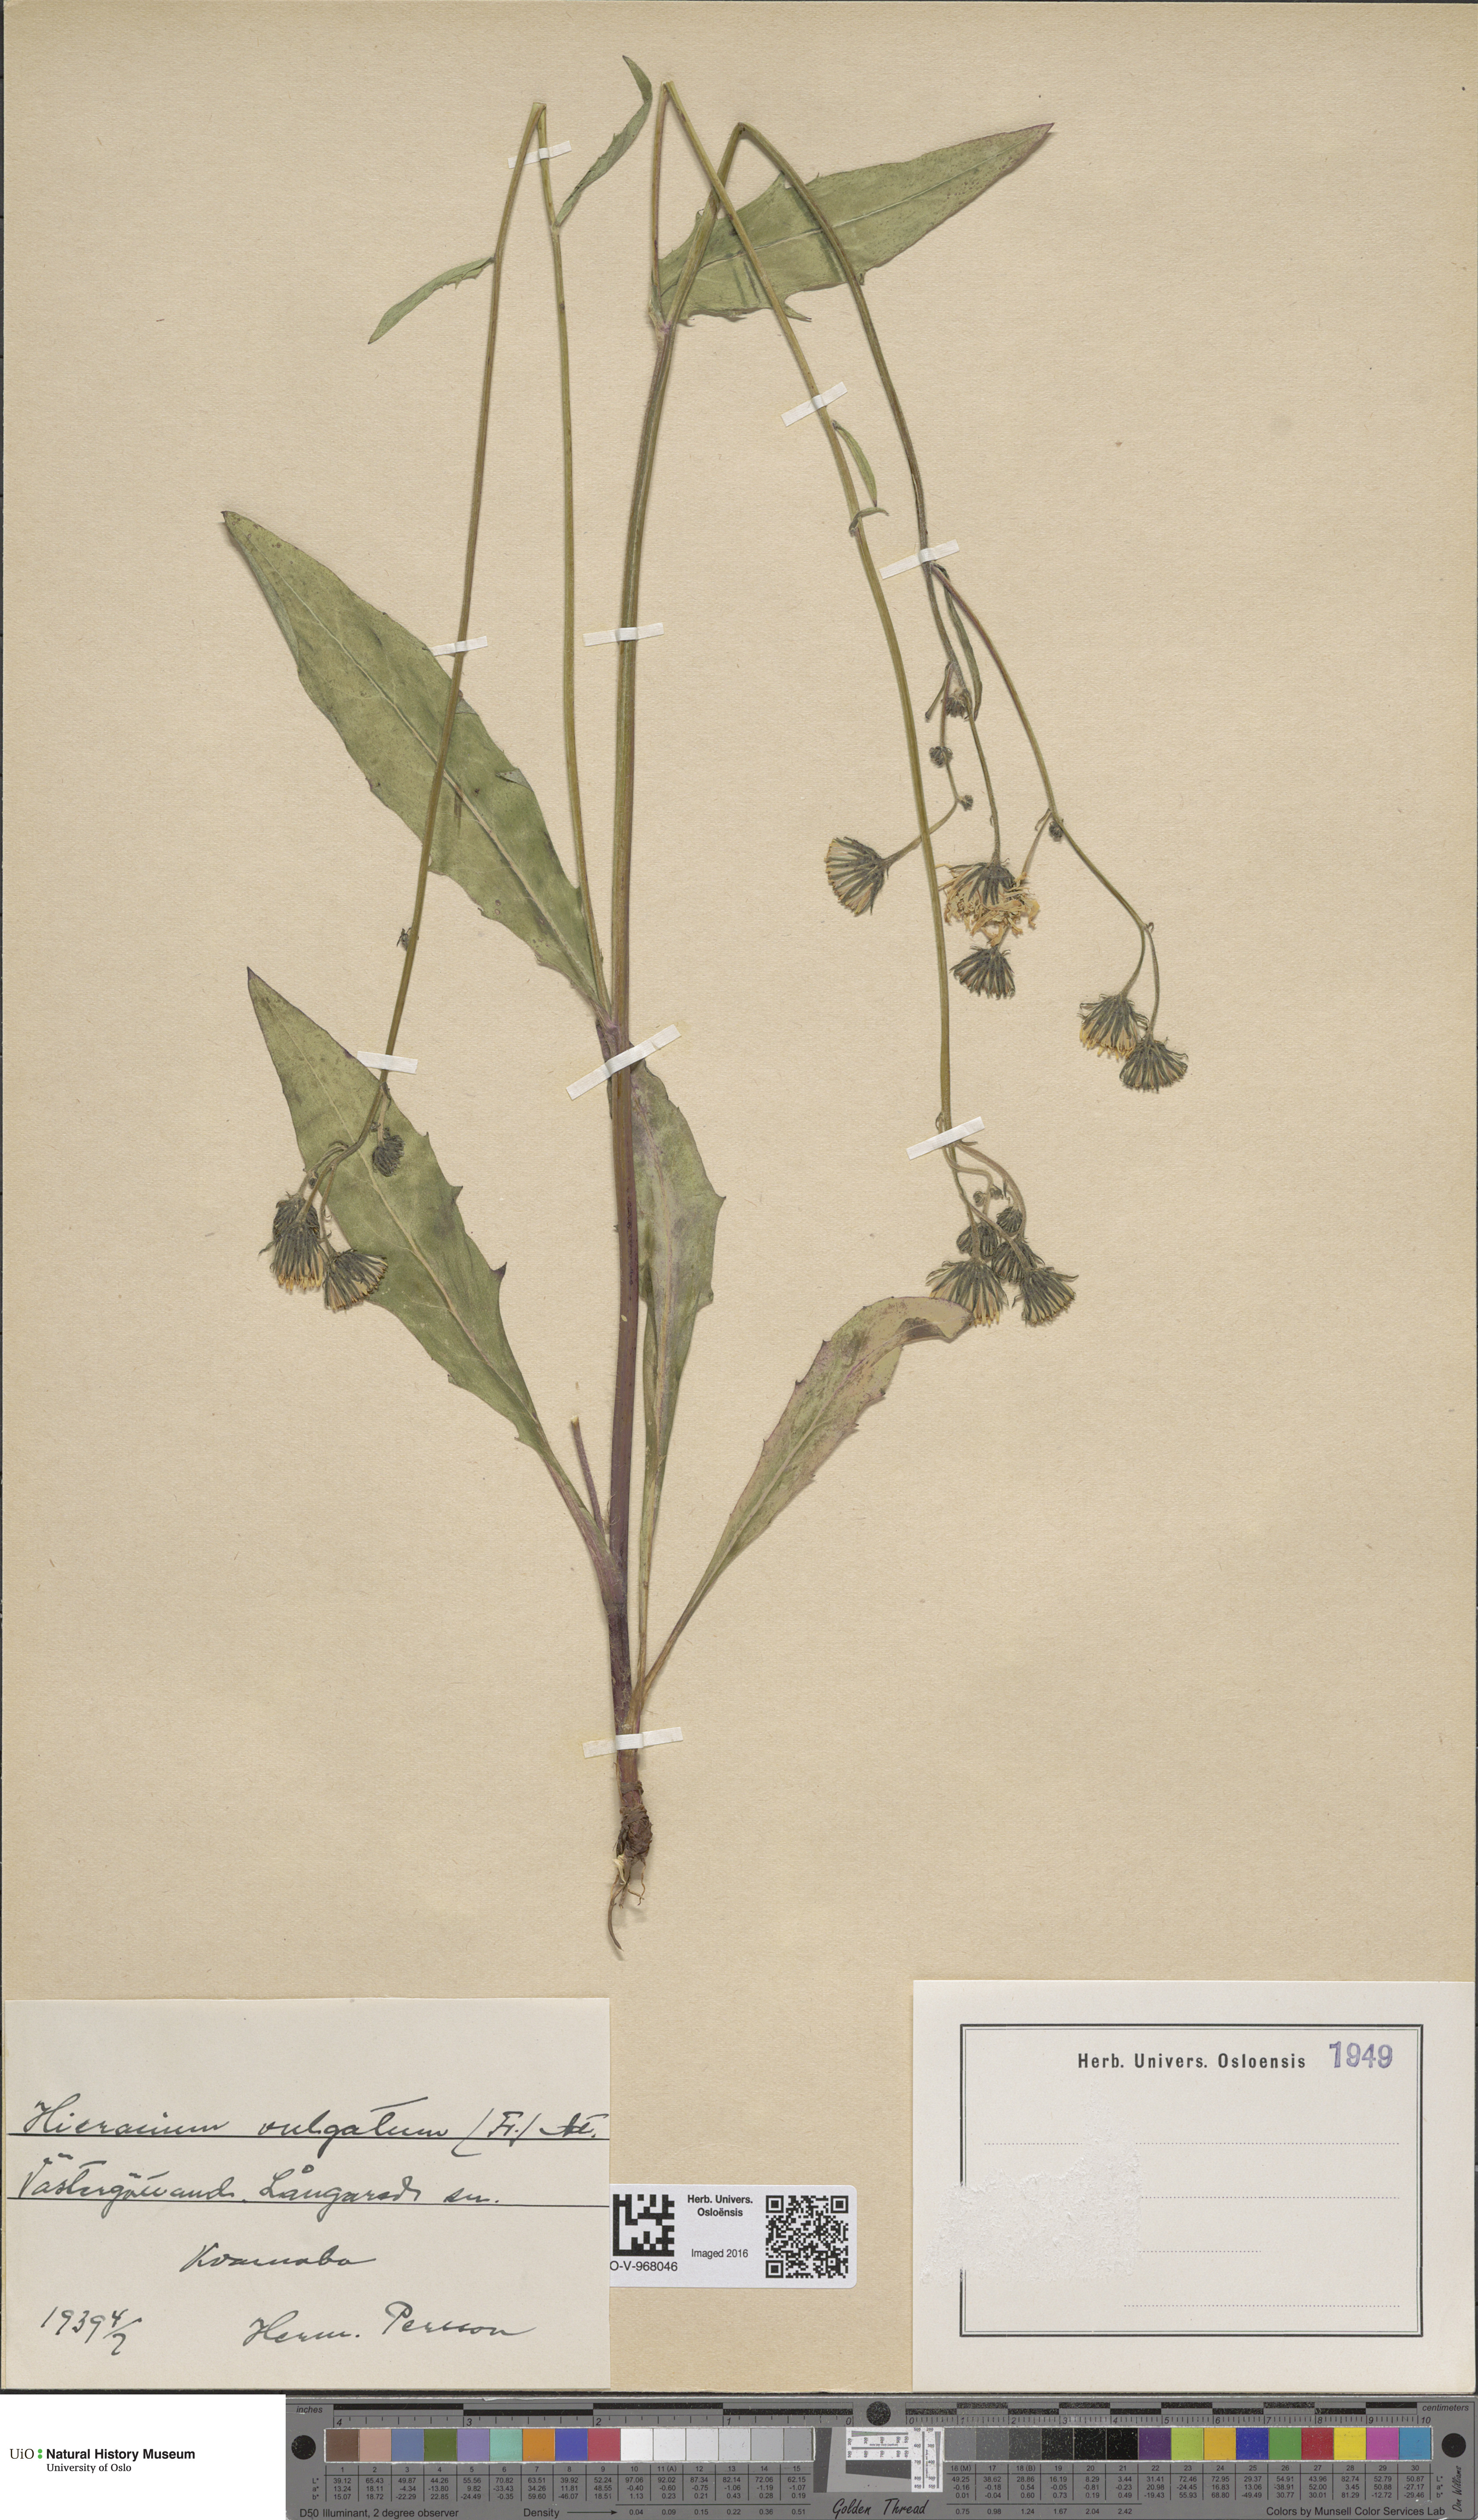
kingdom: Plantae
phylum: Tracheophyta
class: Magnoliopsida
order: Asterales
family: Asteraceae
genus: Hieracium
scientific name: Hieracium vulgatum
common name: Common hawkweed
